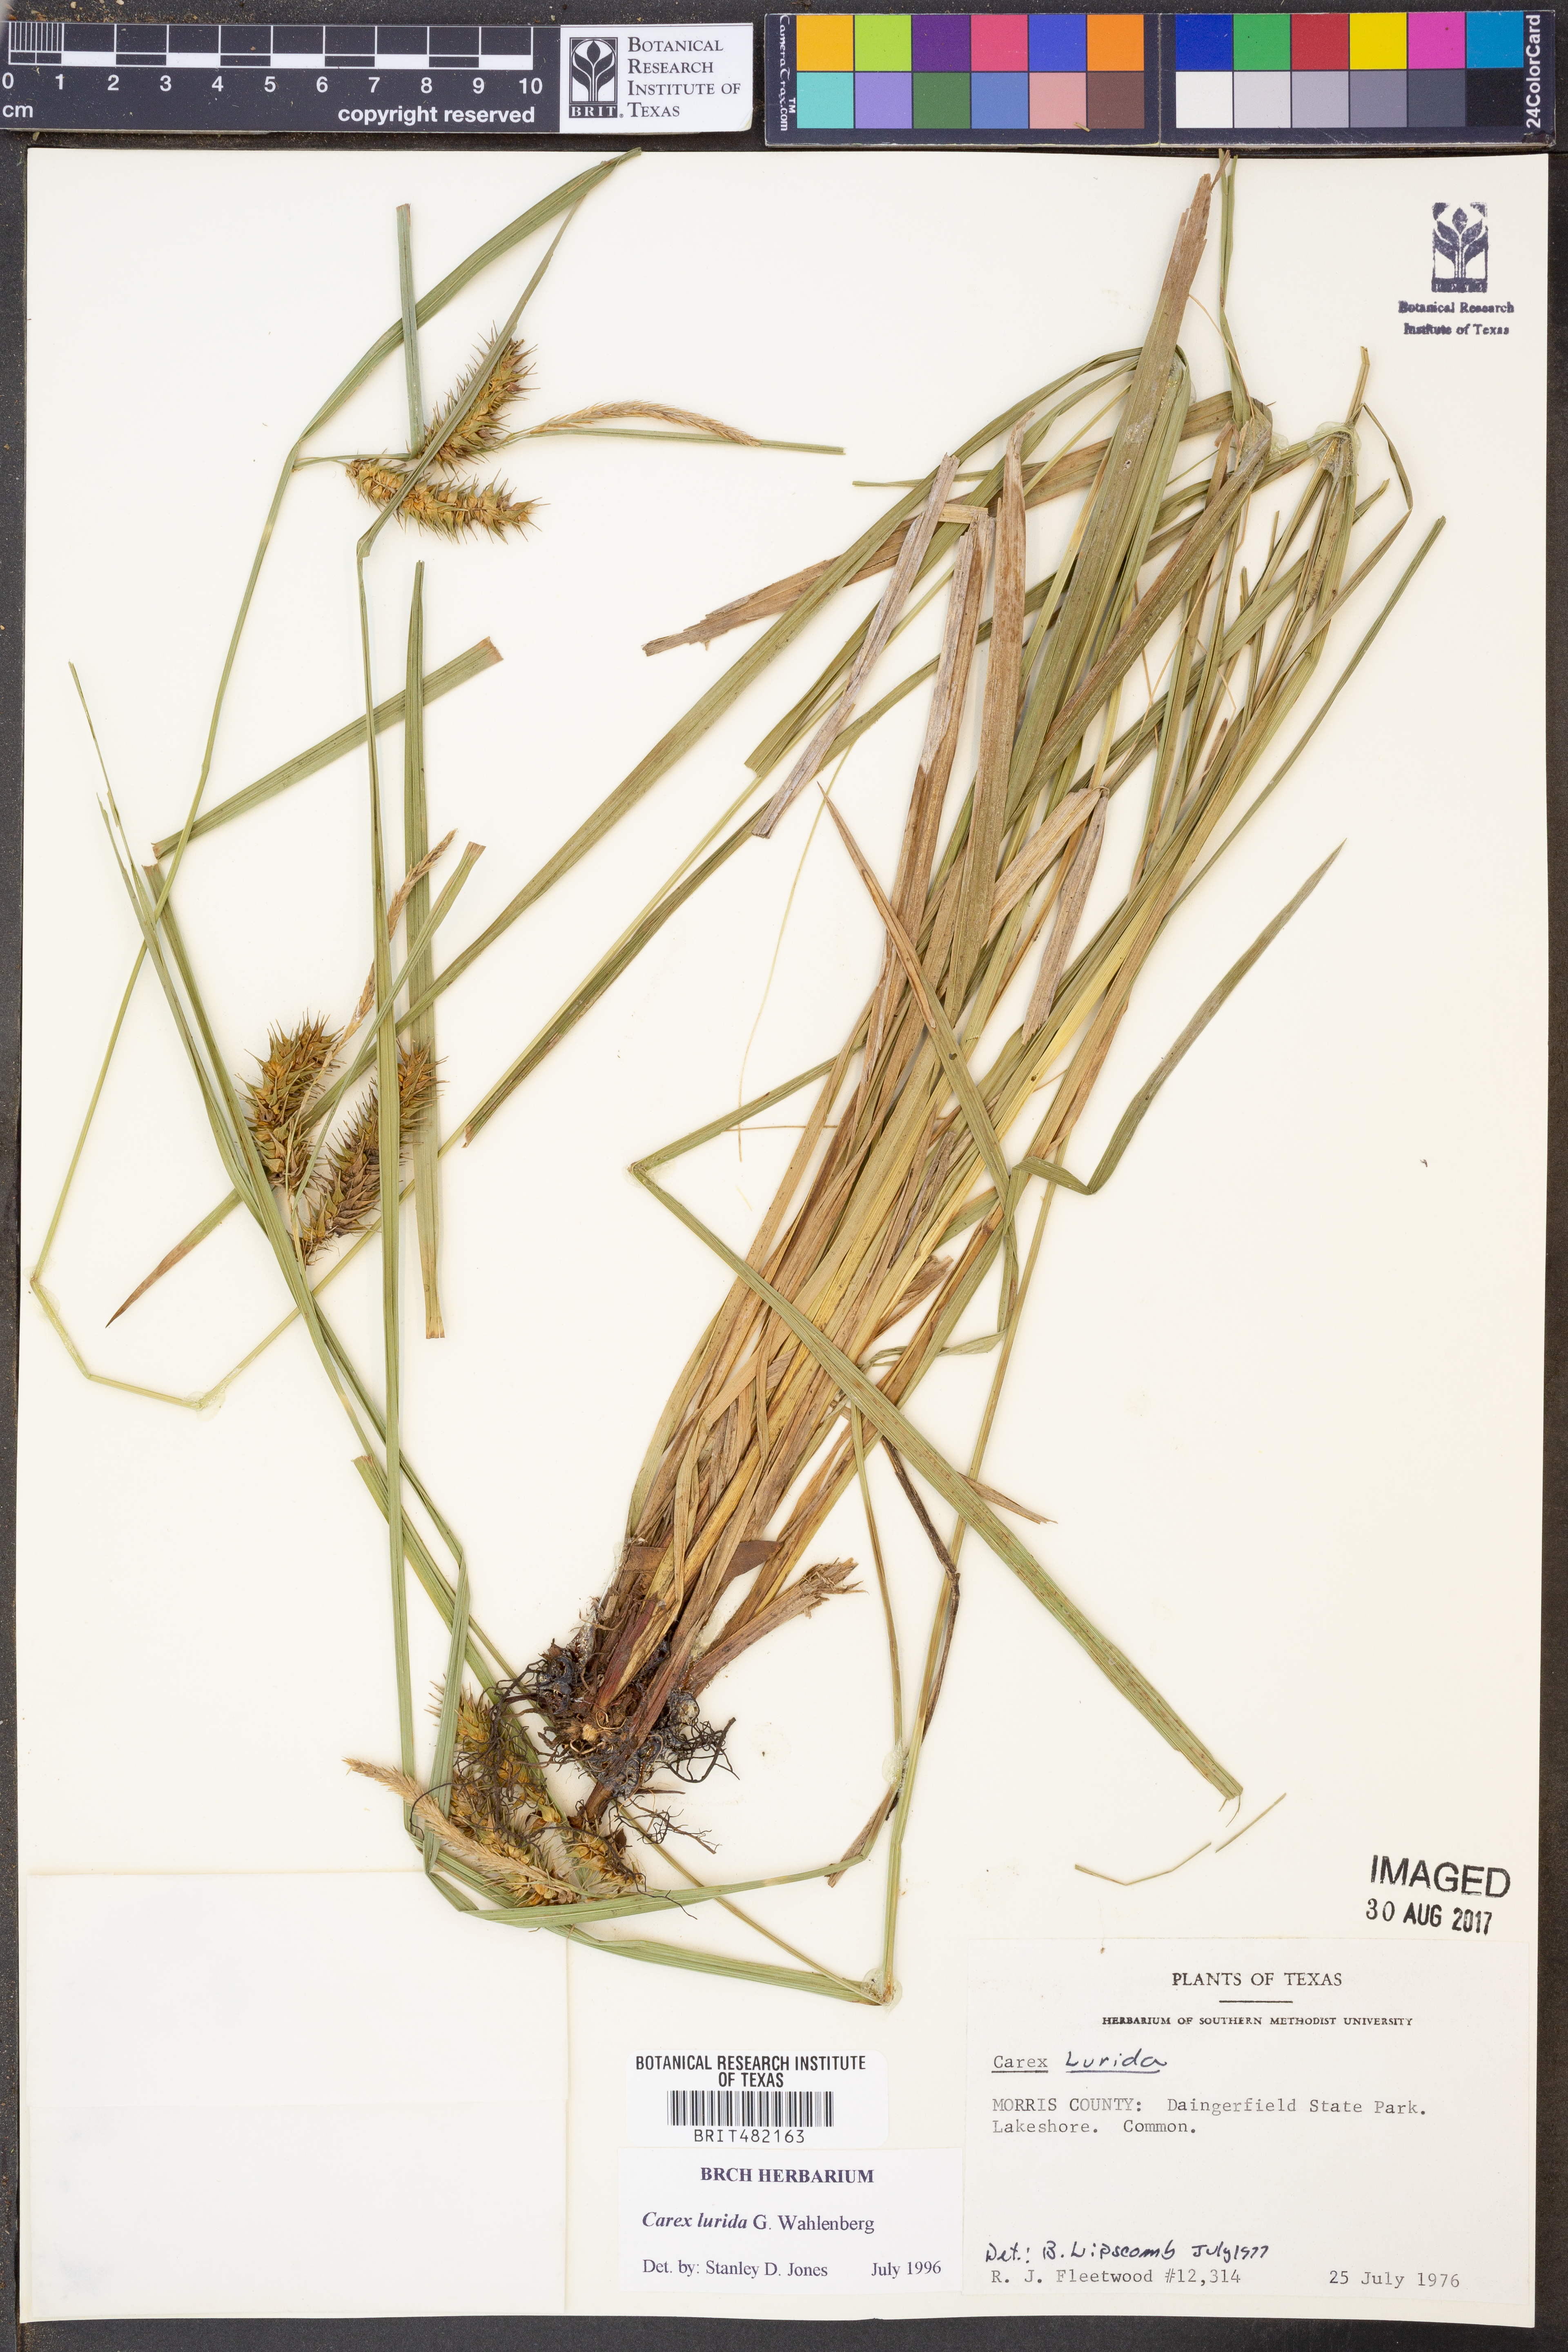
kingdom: Plantae
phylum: Tracheophyta
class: Liliopsida
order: Poales
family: Cyperaceae
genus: Carex
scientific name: Carex lurida
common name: Sallow sedge
